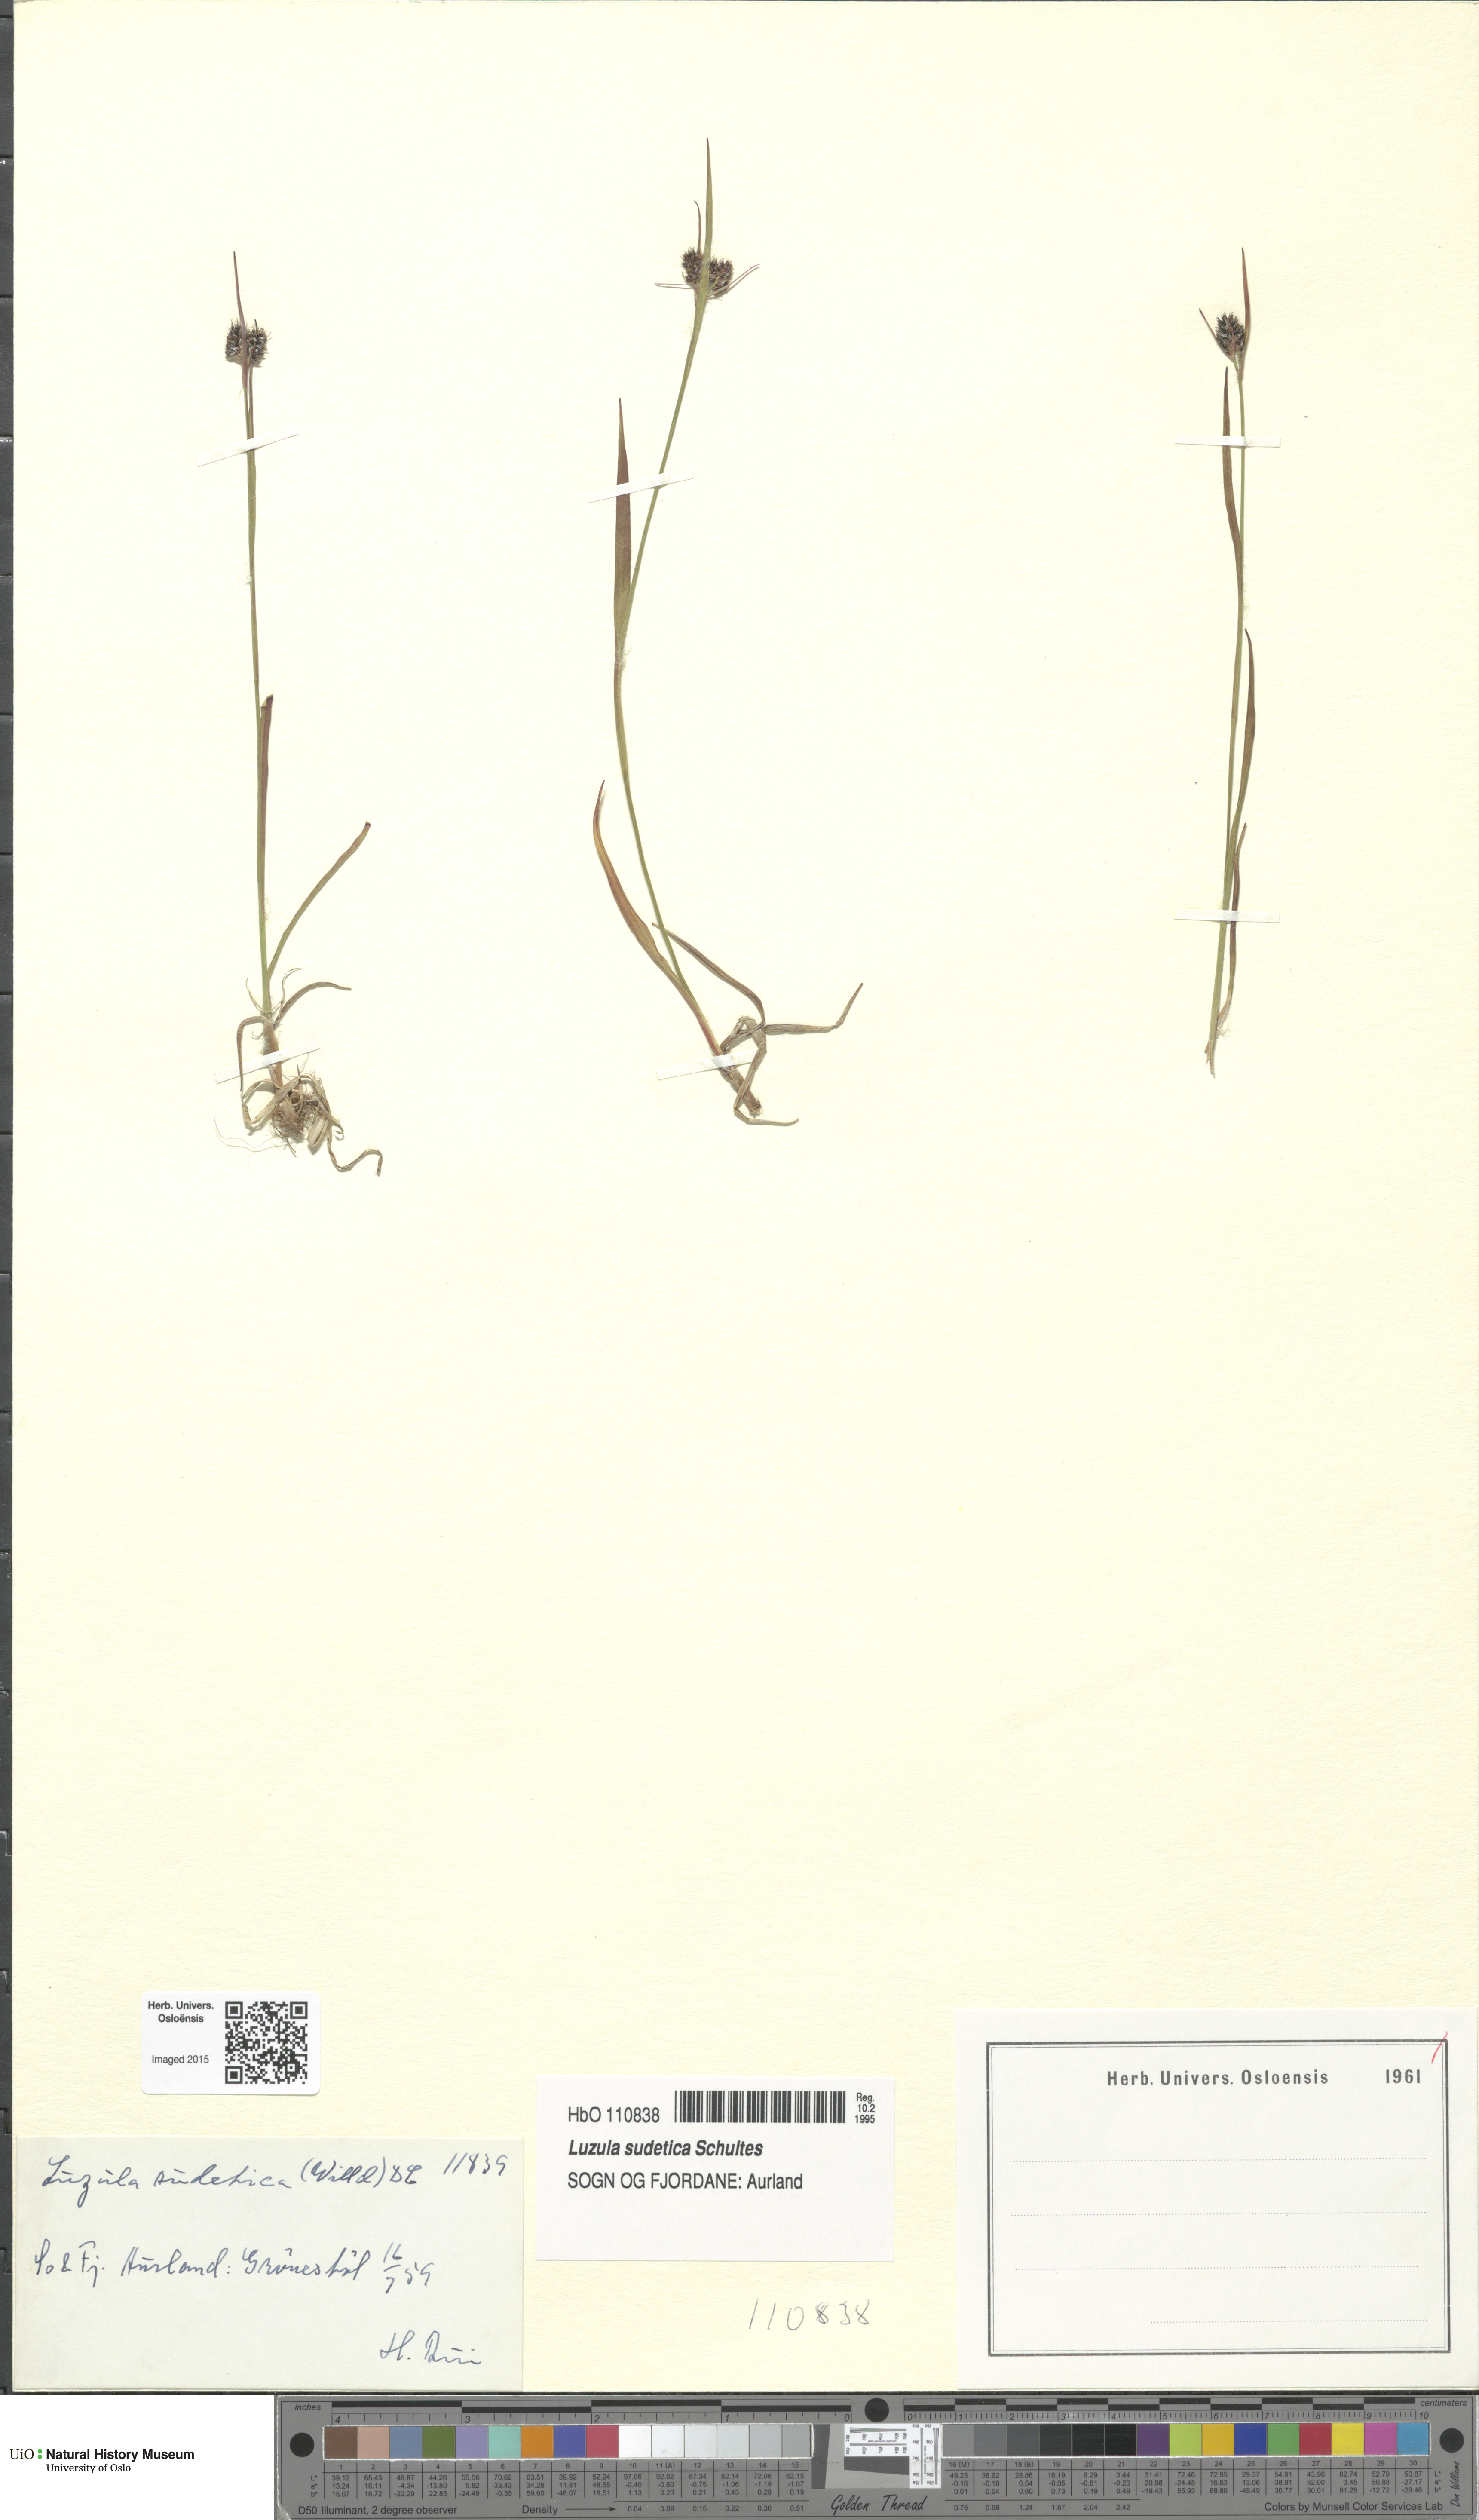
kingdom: Plantae
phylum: Tracheophyta
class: Liliopsida
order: Poales
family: Juncaceae
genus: Luzula
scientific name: Luzula sudetica
